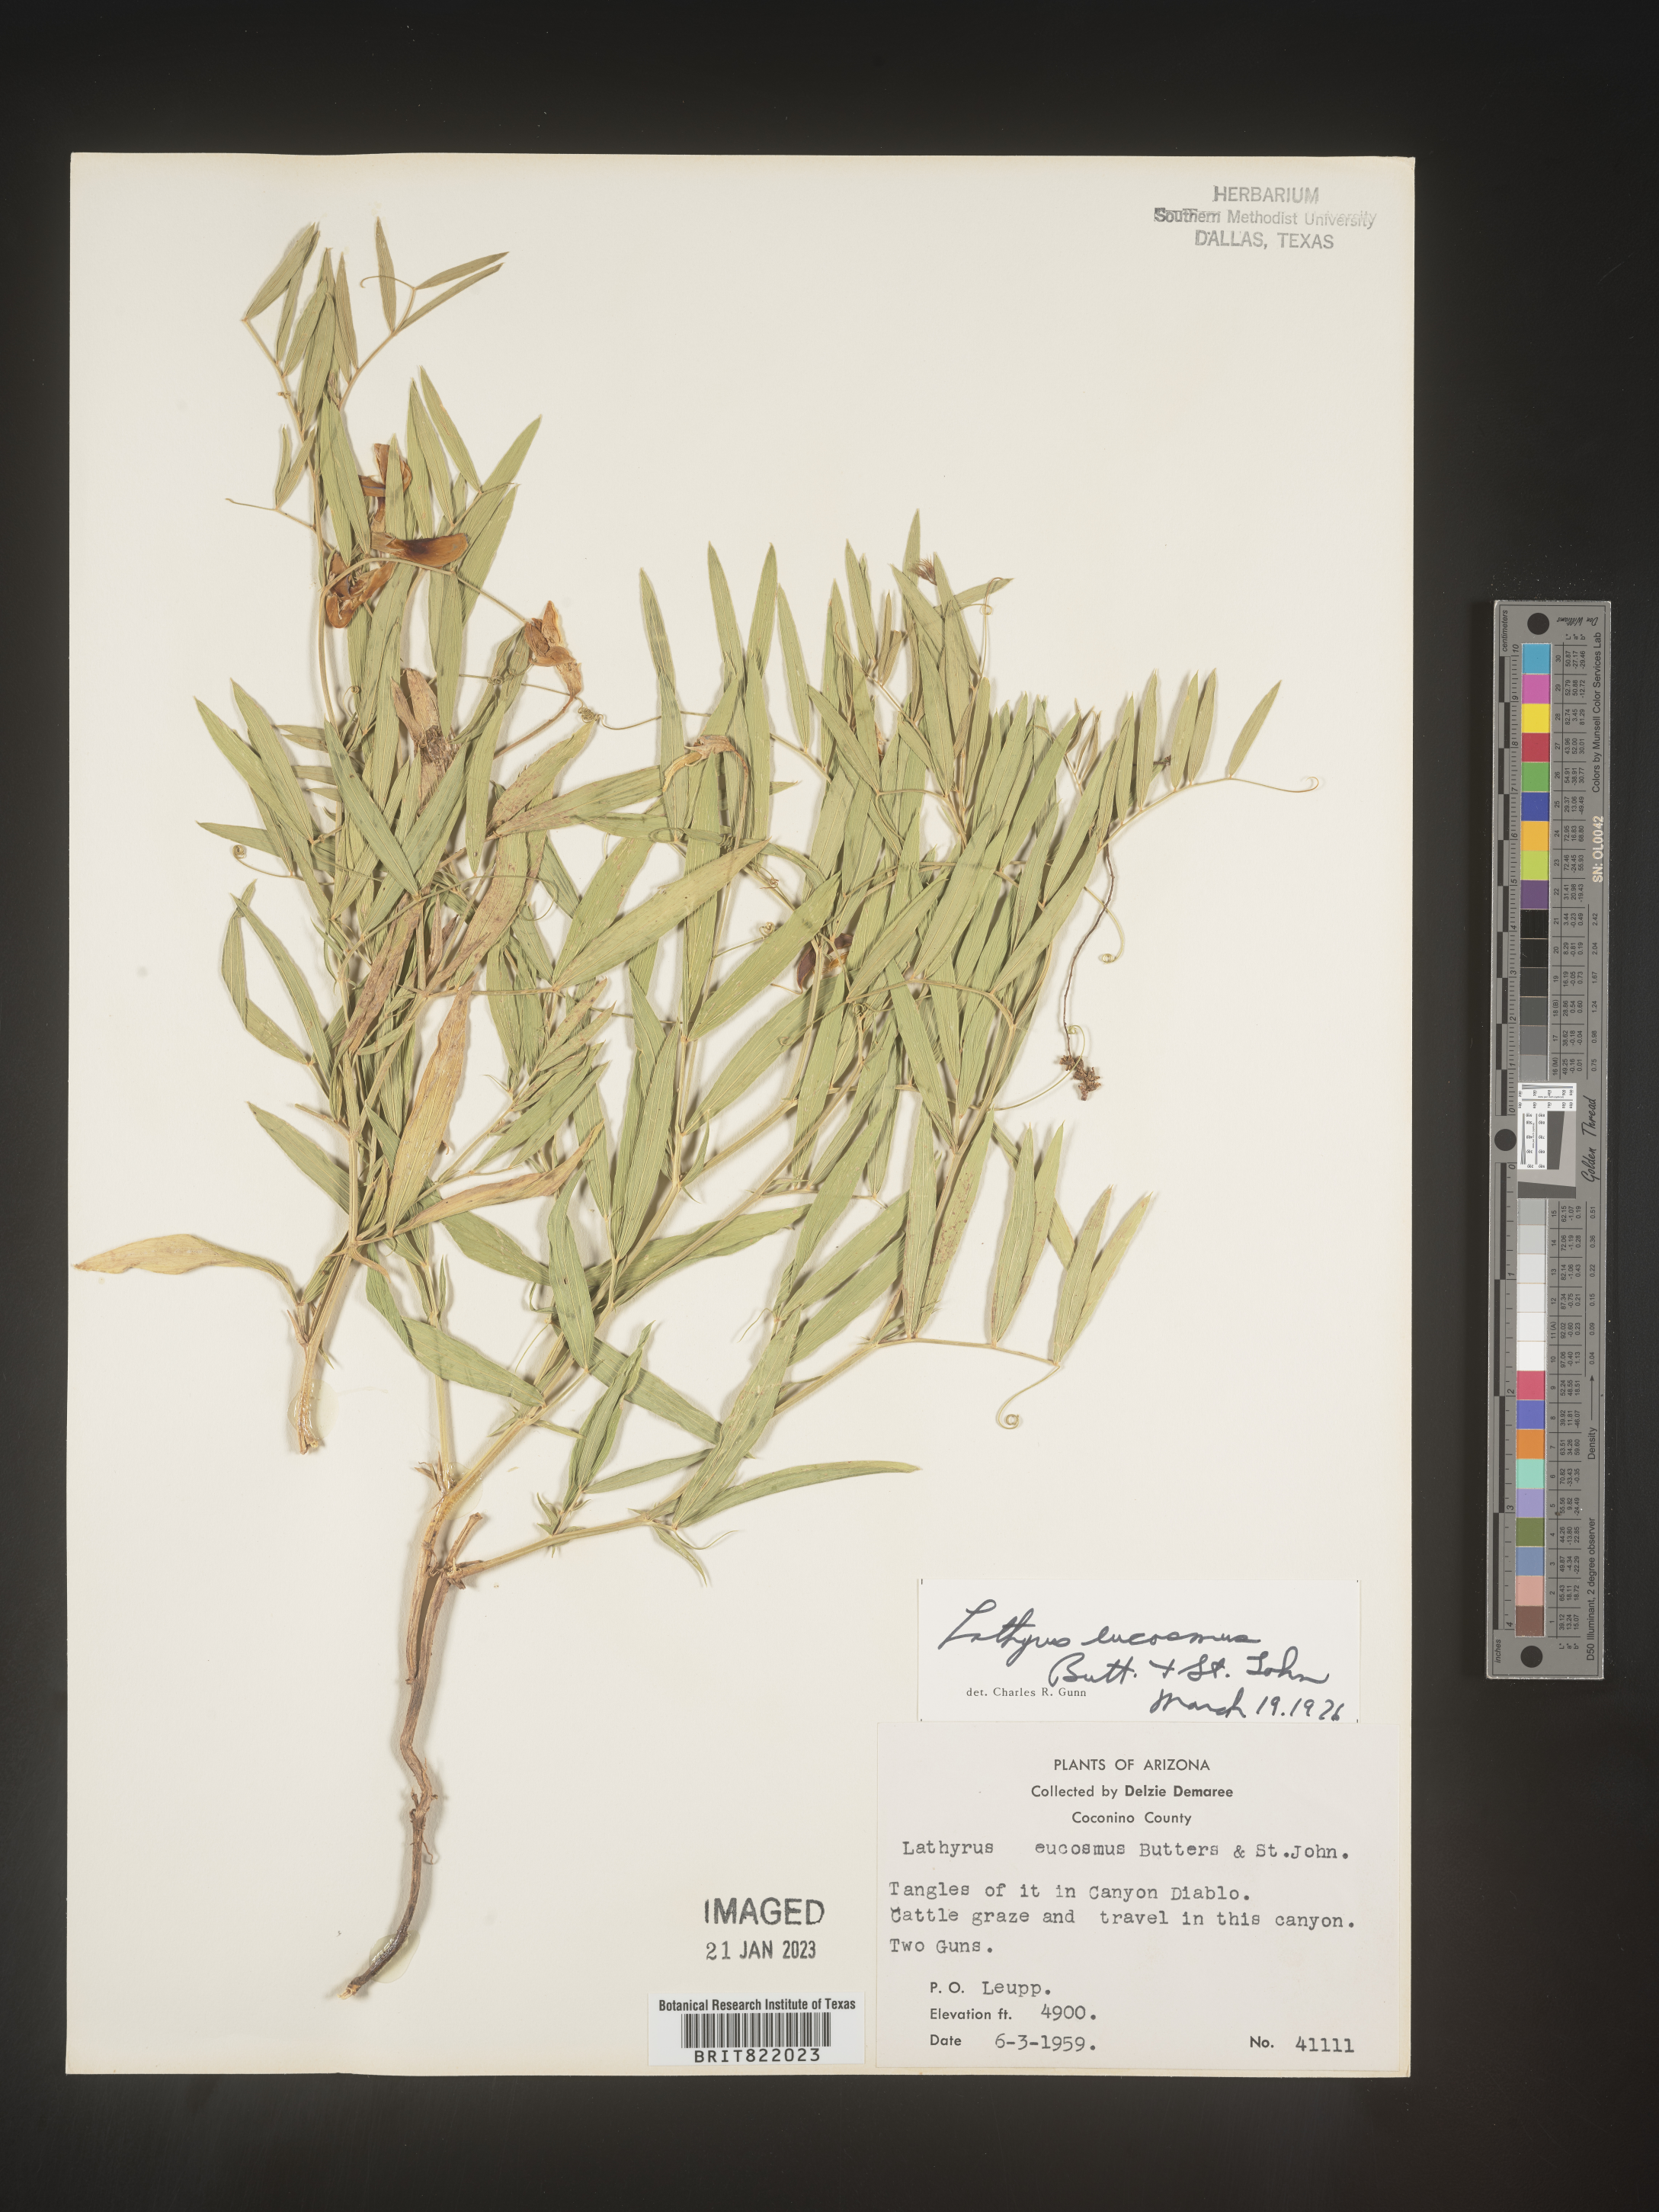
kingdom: Plantae
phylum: Tracheophyta
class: Magnoliopsida
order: Fabales
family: Fabaceae
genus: Lathyrus
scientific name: Lathyrus
